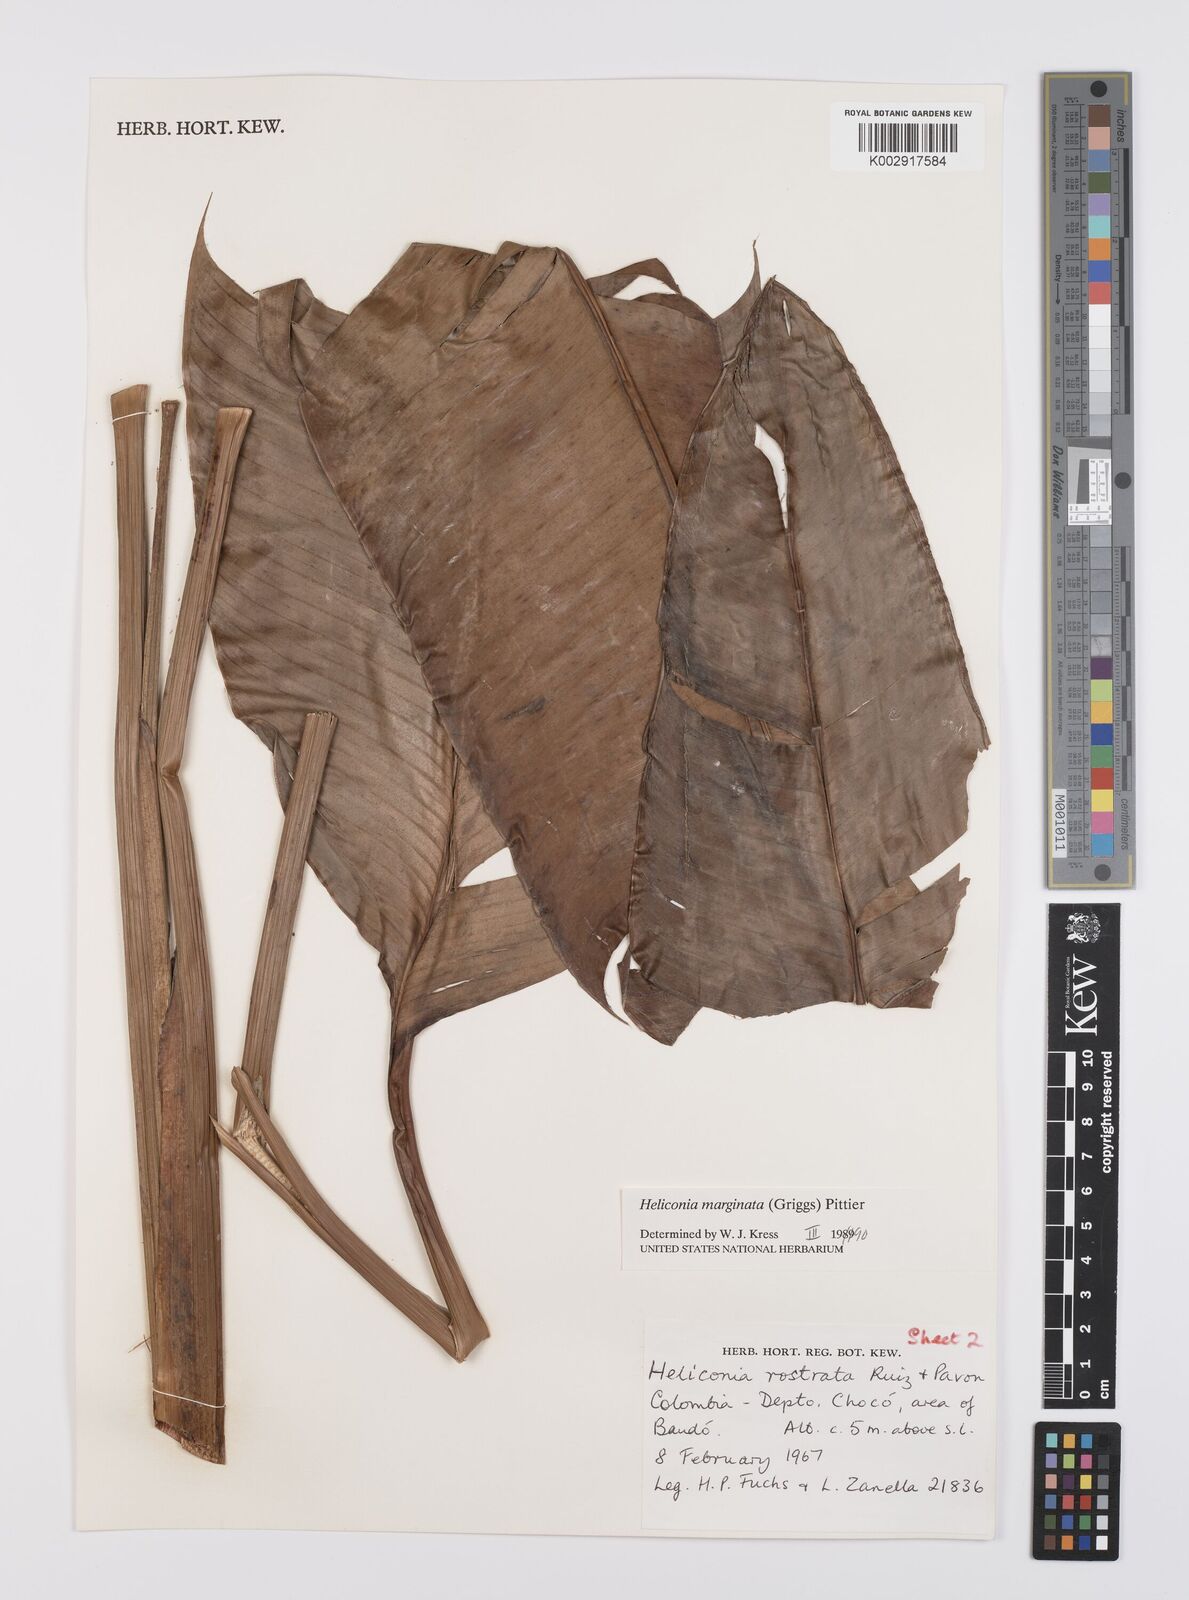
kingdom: Plantae
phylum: Tracheophyta
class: Liliopsida
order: Zingiberales
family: Heliconiaceae
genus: Heliconia
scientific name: Heliconia marginata
